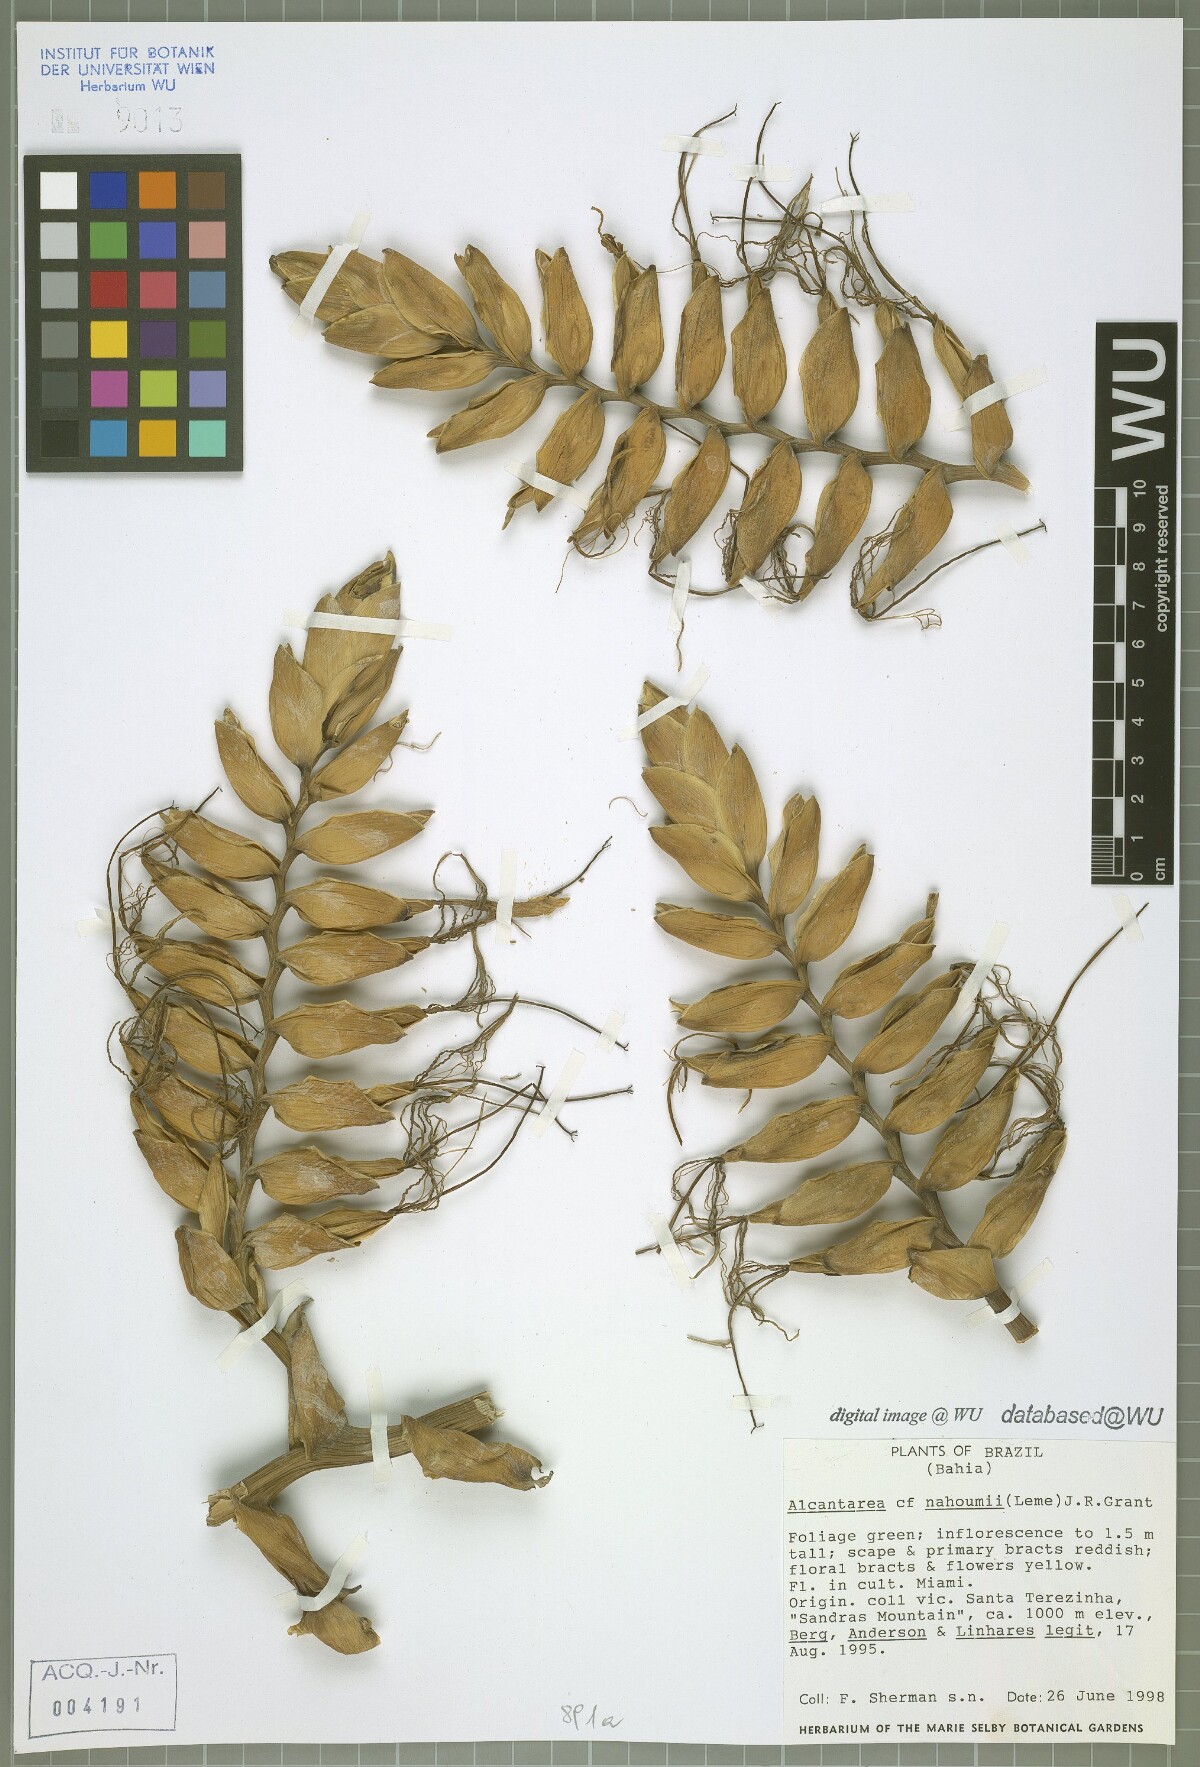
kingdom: Plantae
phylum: Tracheophyta
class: Liliopsida
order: Poales
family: Bromeliaceae
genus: Alcantarea
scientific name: Alcantarea nahoumii
